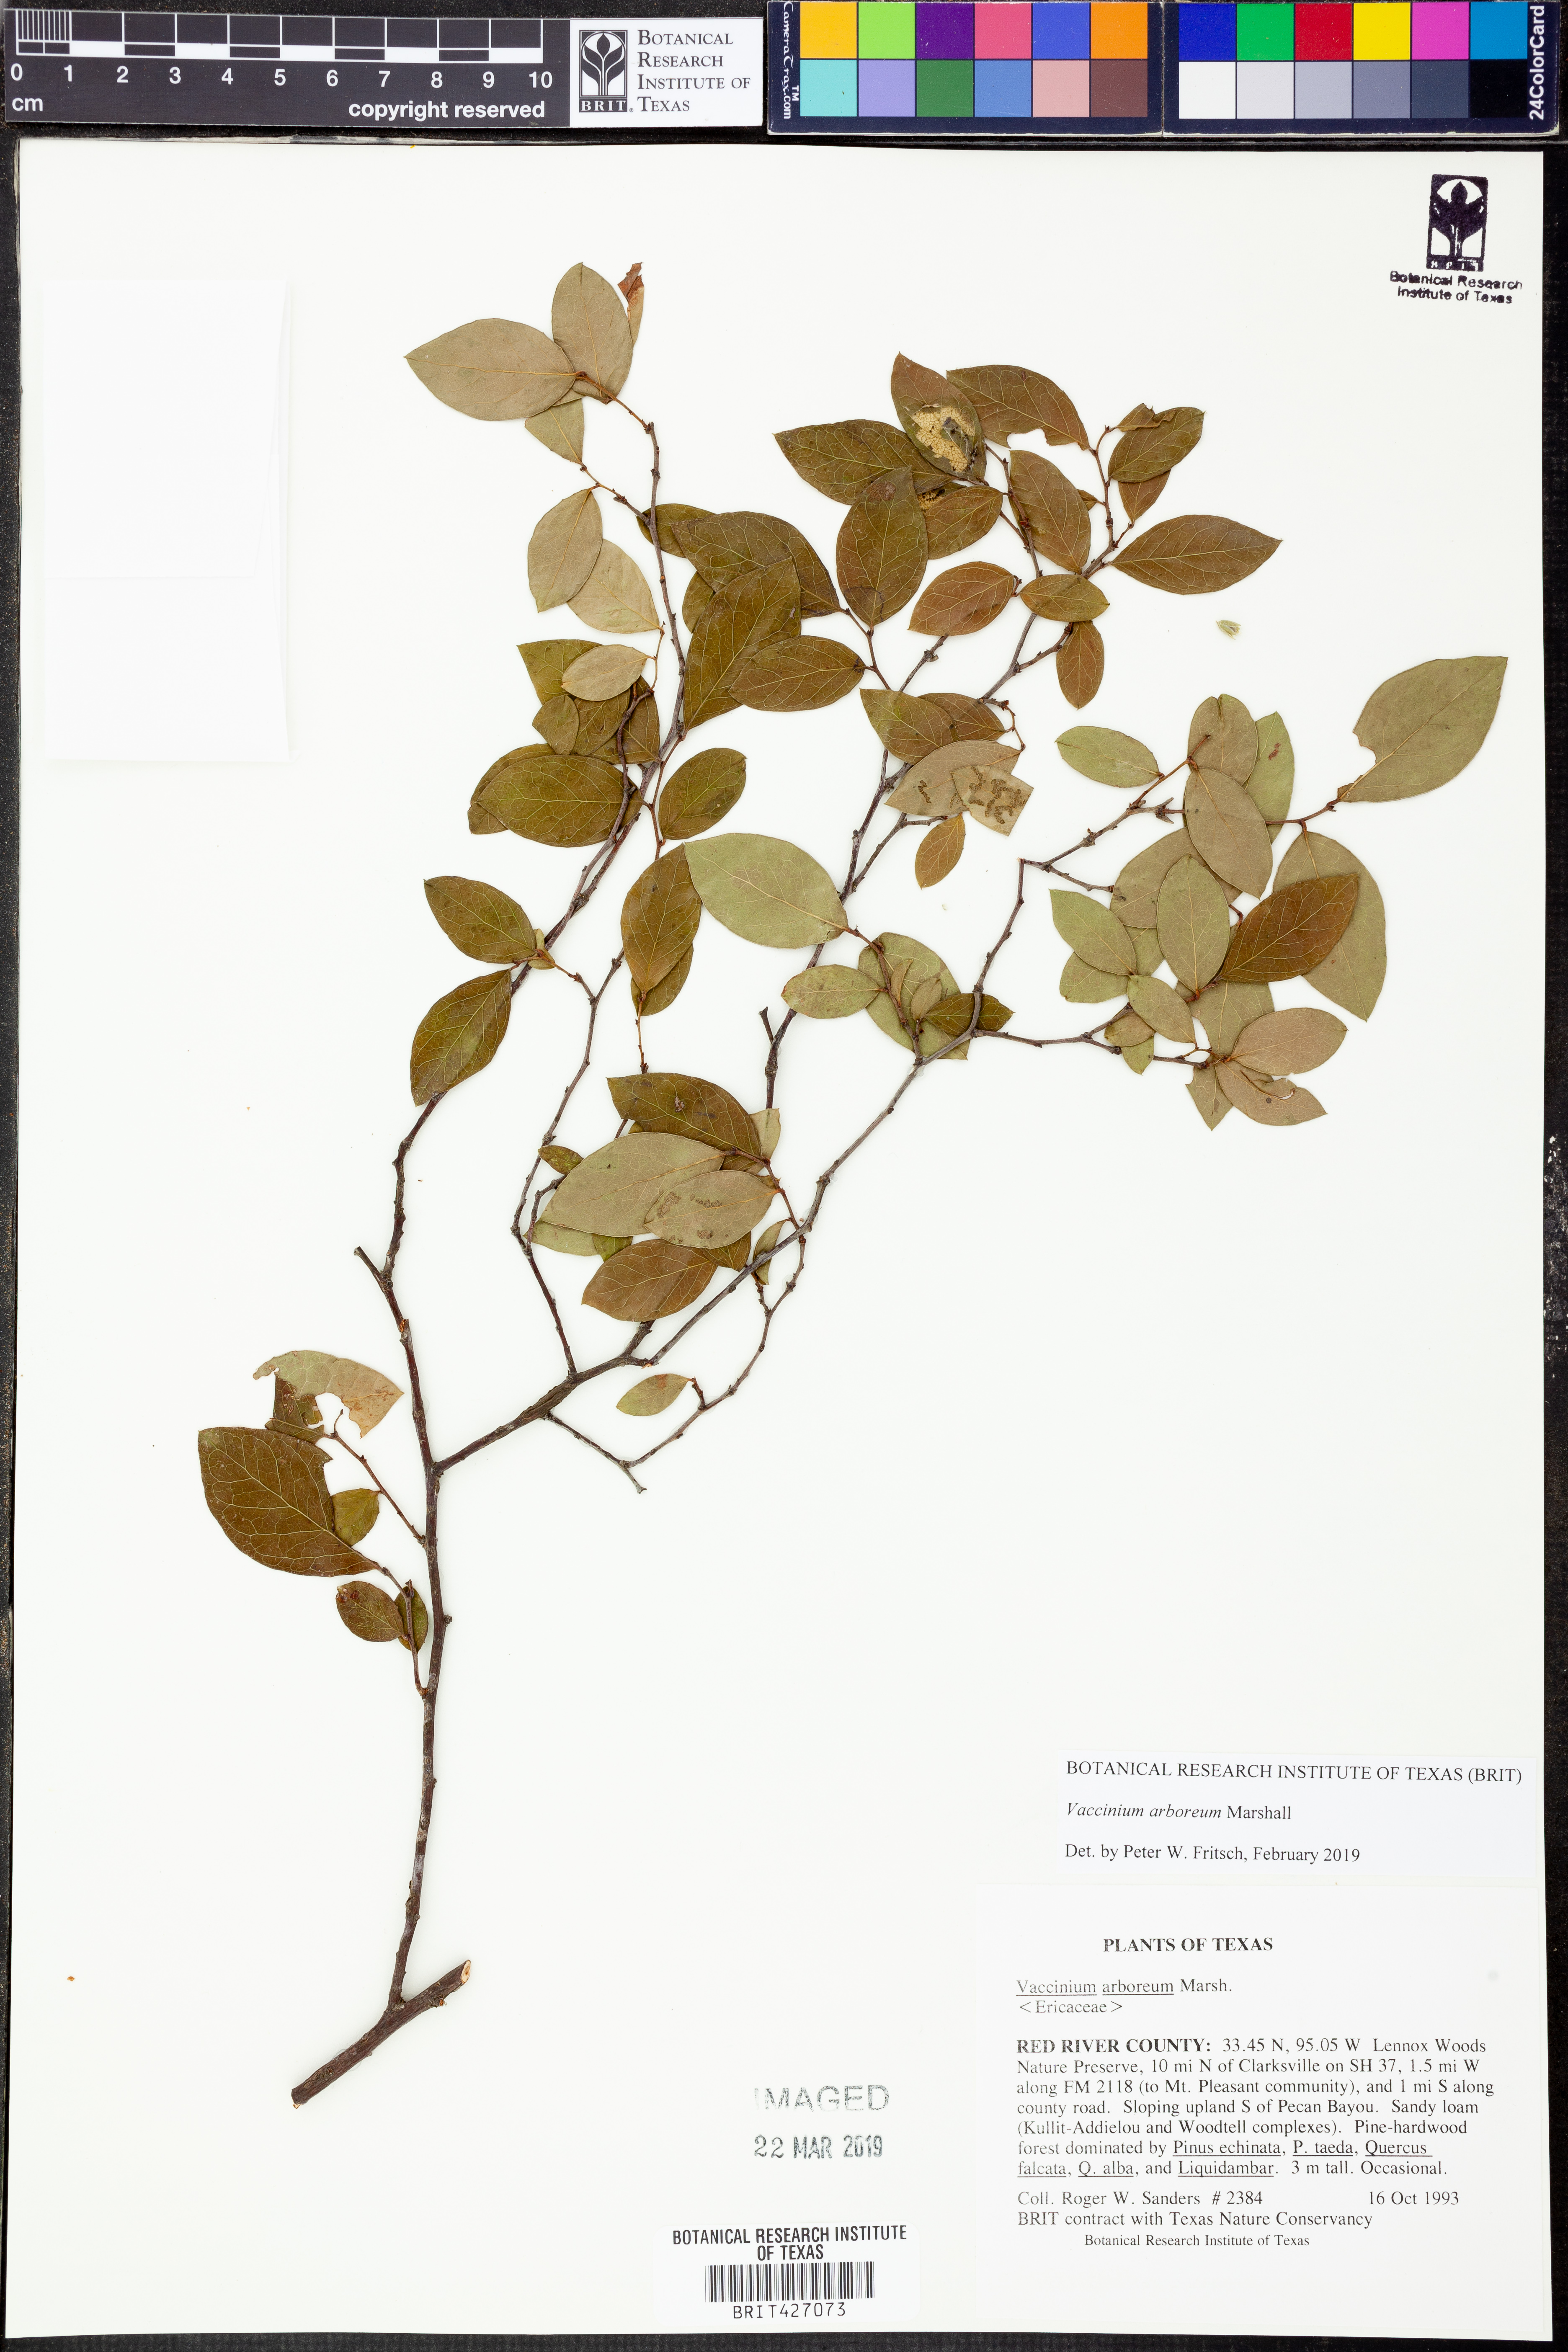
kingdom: Plantae
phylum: Tracheophyta
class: Magnoliopsida
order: Ericales
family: Ericaceae
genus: Vaccinium
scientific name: Vaccinium arboreum
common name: Farkleberry
